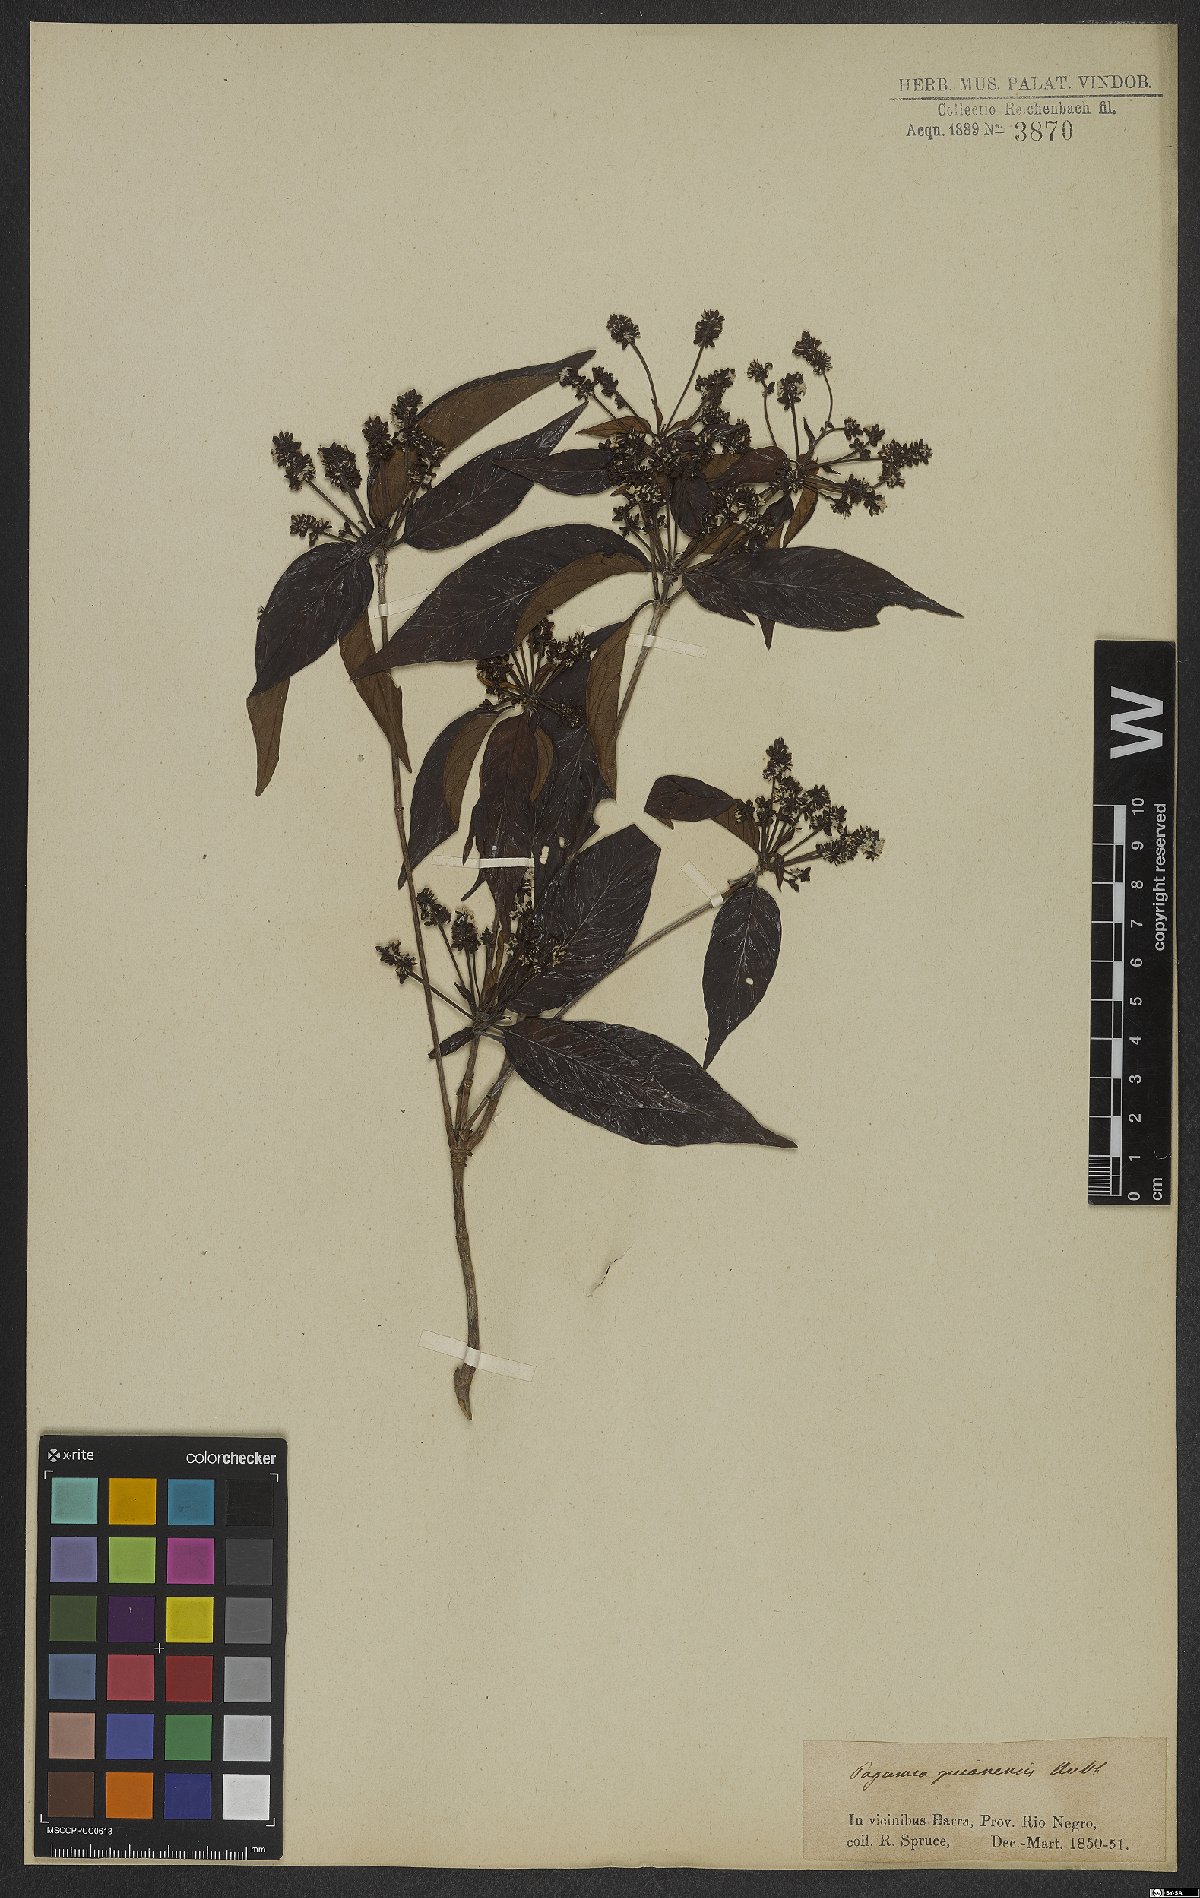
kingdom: Plantae
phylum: Tracheophyta
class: Magnoliopsida
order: Gentianales
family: Rubiaceae
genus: Pagamea
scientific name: Pagamea guianensis
